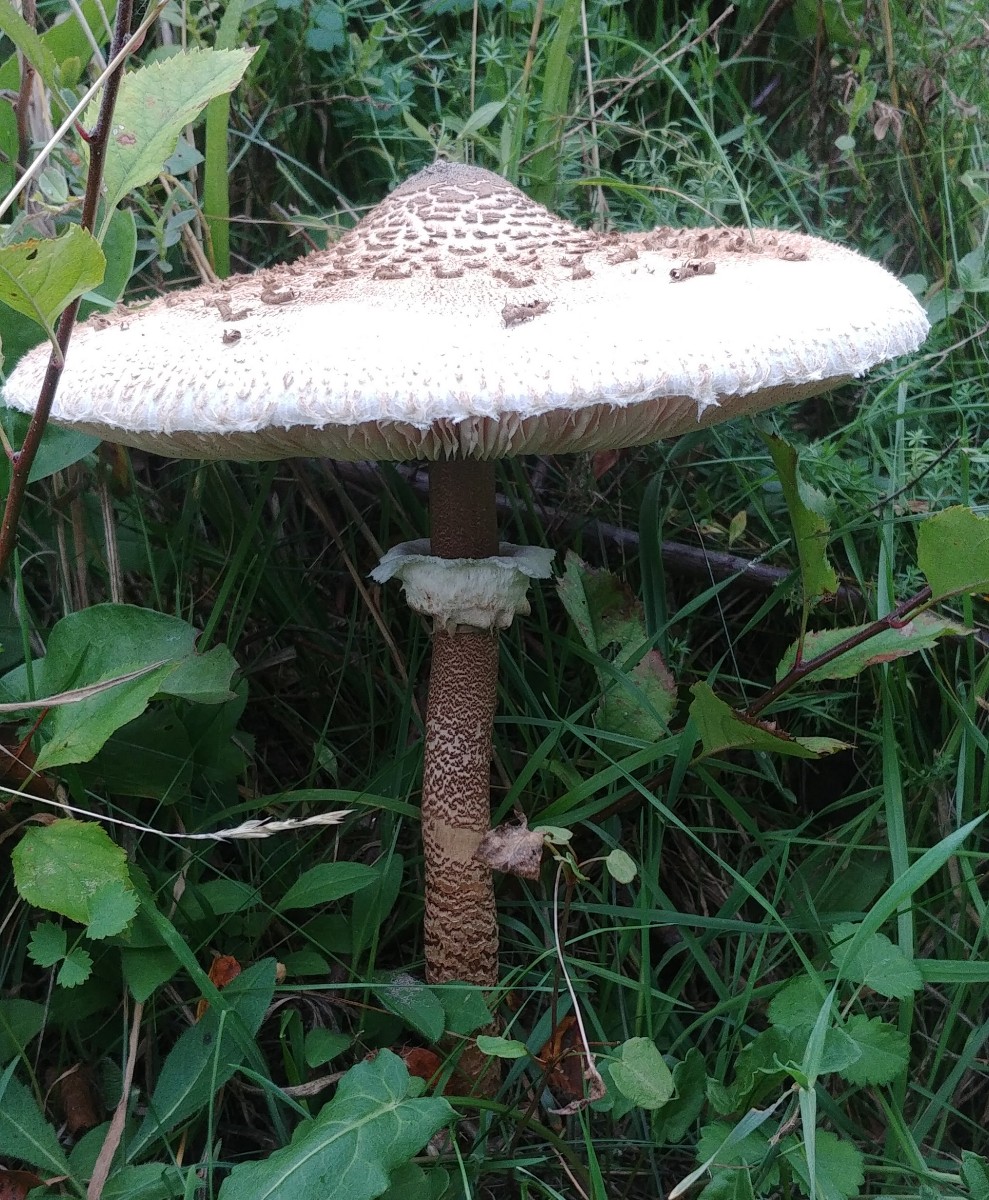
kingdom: Fungi
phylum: Basidiomycota
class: Agaricomycetes
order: Agaricales
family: Agaricaceae
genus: Macrolepiota
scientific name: Macrolepiota procera
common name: stor kæmpeparasolhat
